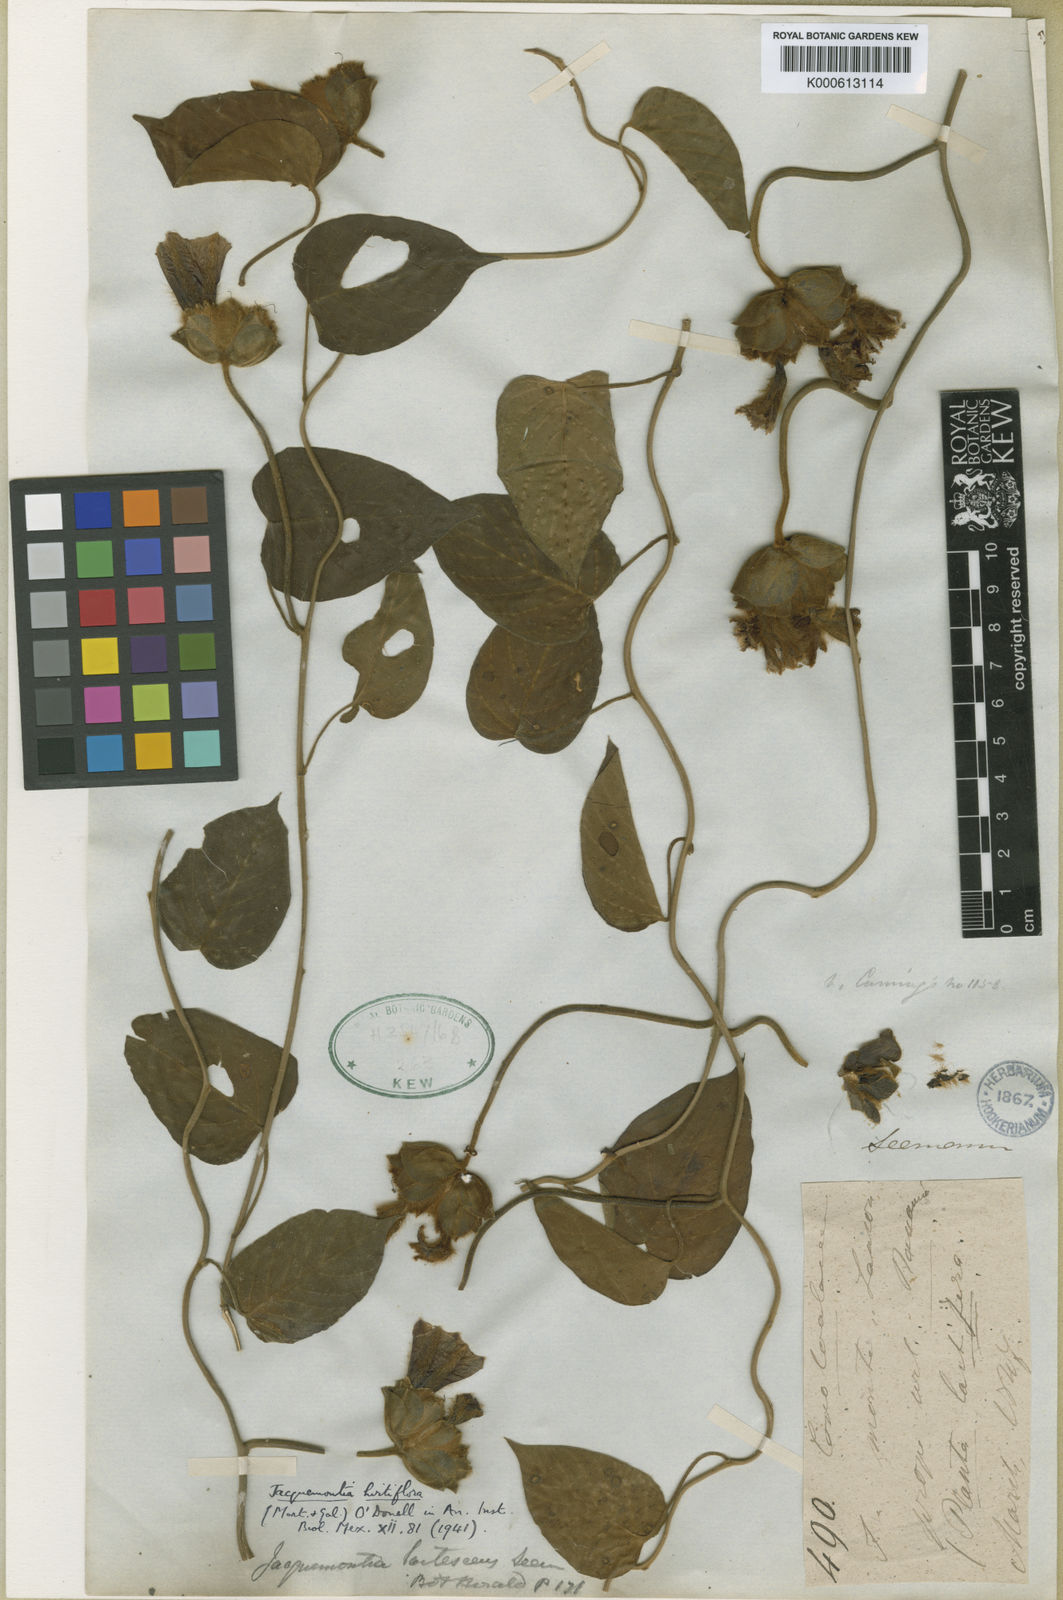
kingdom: Plantae
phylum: Tracheophyta
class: Magnoliopsida
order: Solanales
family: Convolvulaceae
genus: Odonellia
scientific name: Odonellia hirtiflora
